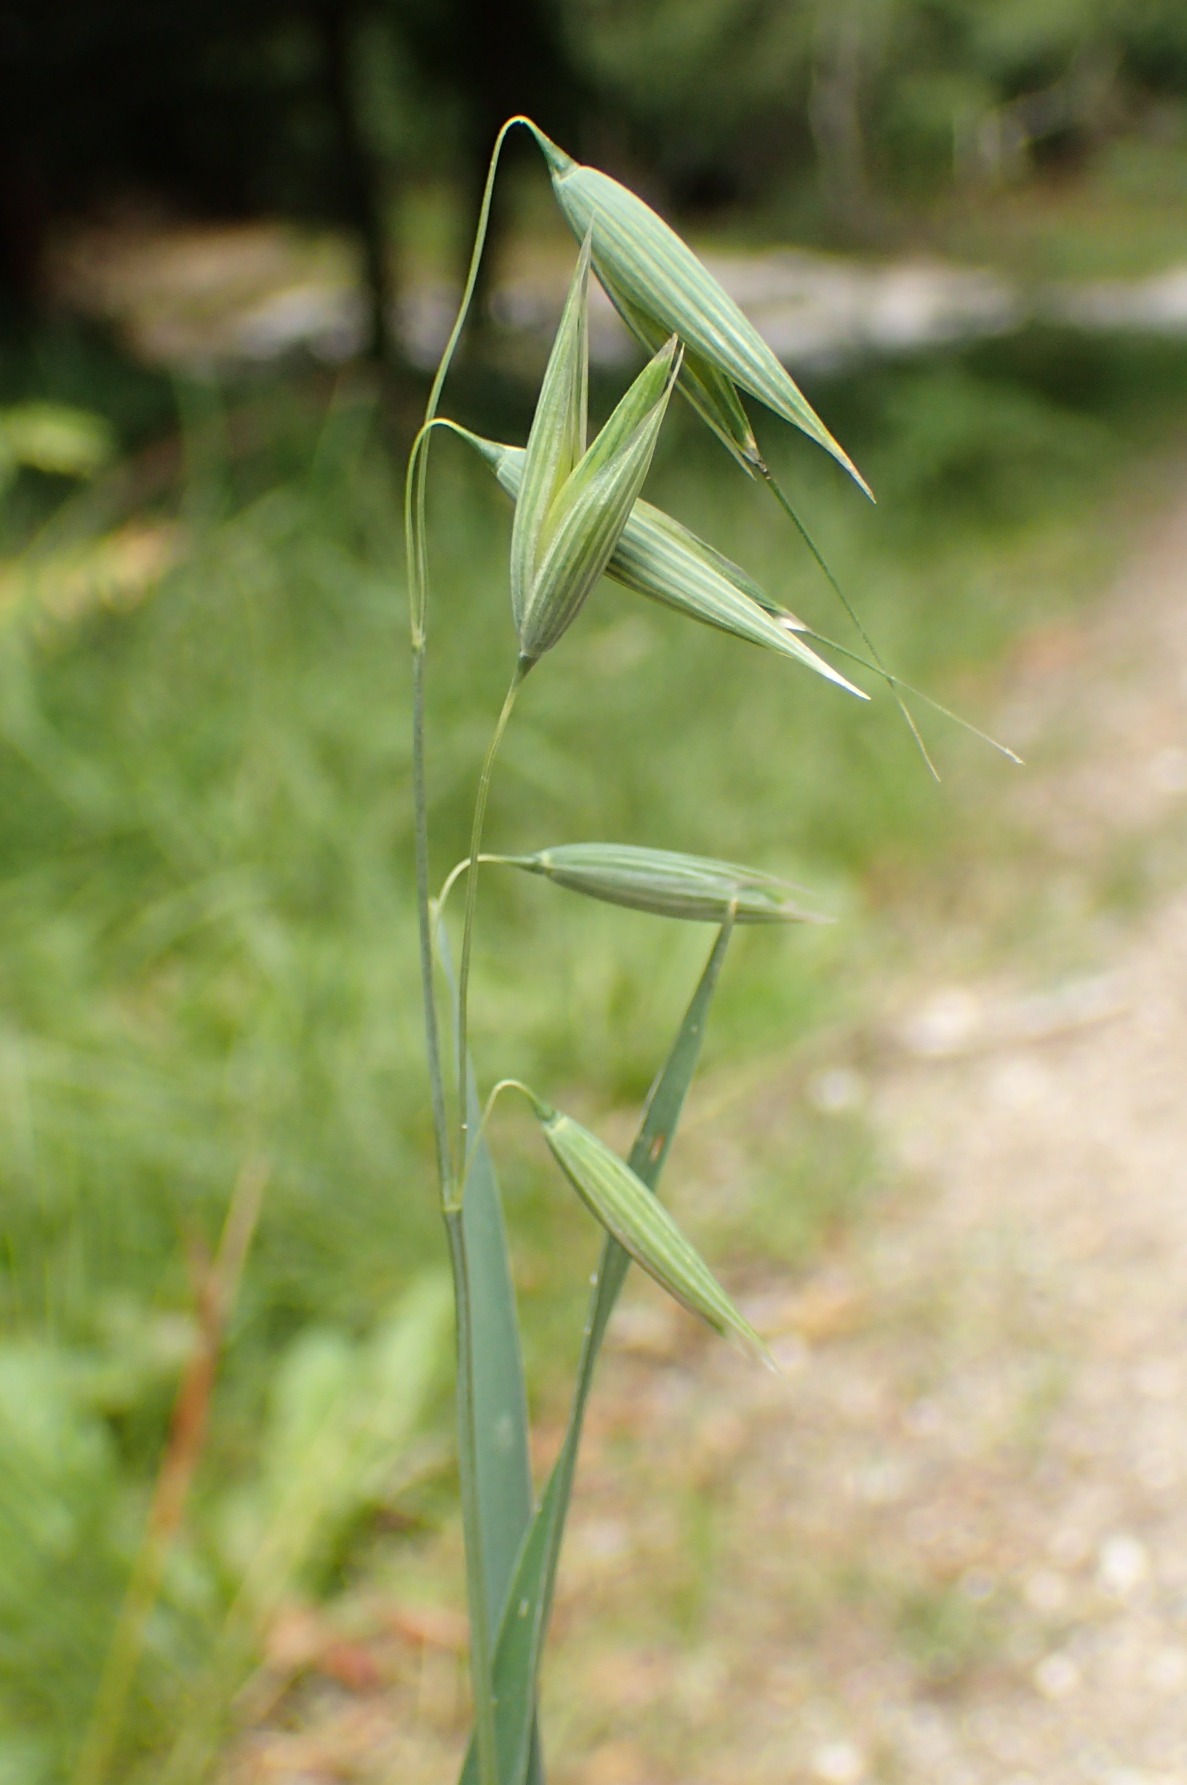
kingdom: Plantae
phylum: Tracheophyta
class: Liliopsida
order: Poales
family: Poaceae
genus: Avena
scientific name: Avena sativa
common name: Almindelig havre
